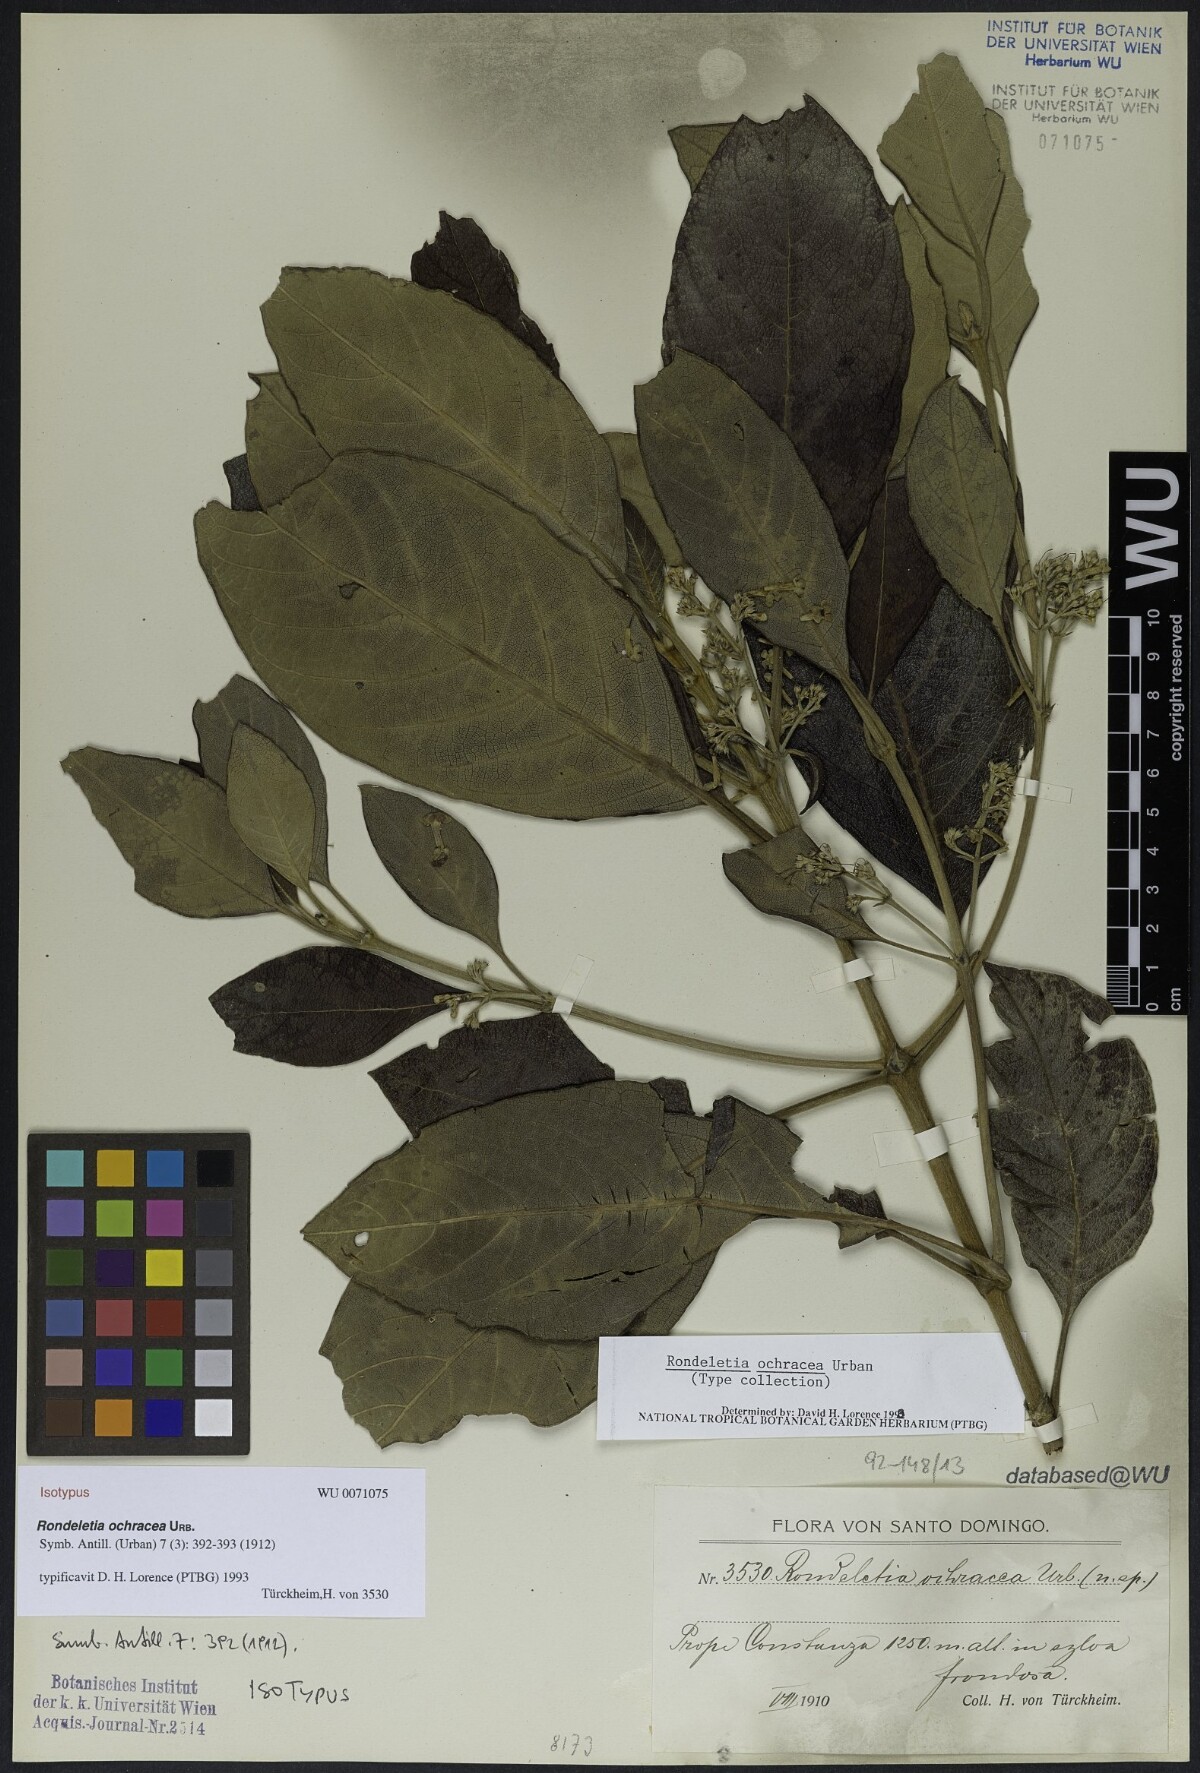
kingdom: Plantae
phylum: Tracheophyta
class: Magnoliopsida
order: Gentianales
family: Rubiaceae
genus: Rondeletia
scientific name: Rondeletia ochracea
